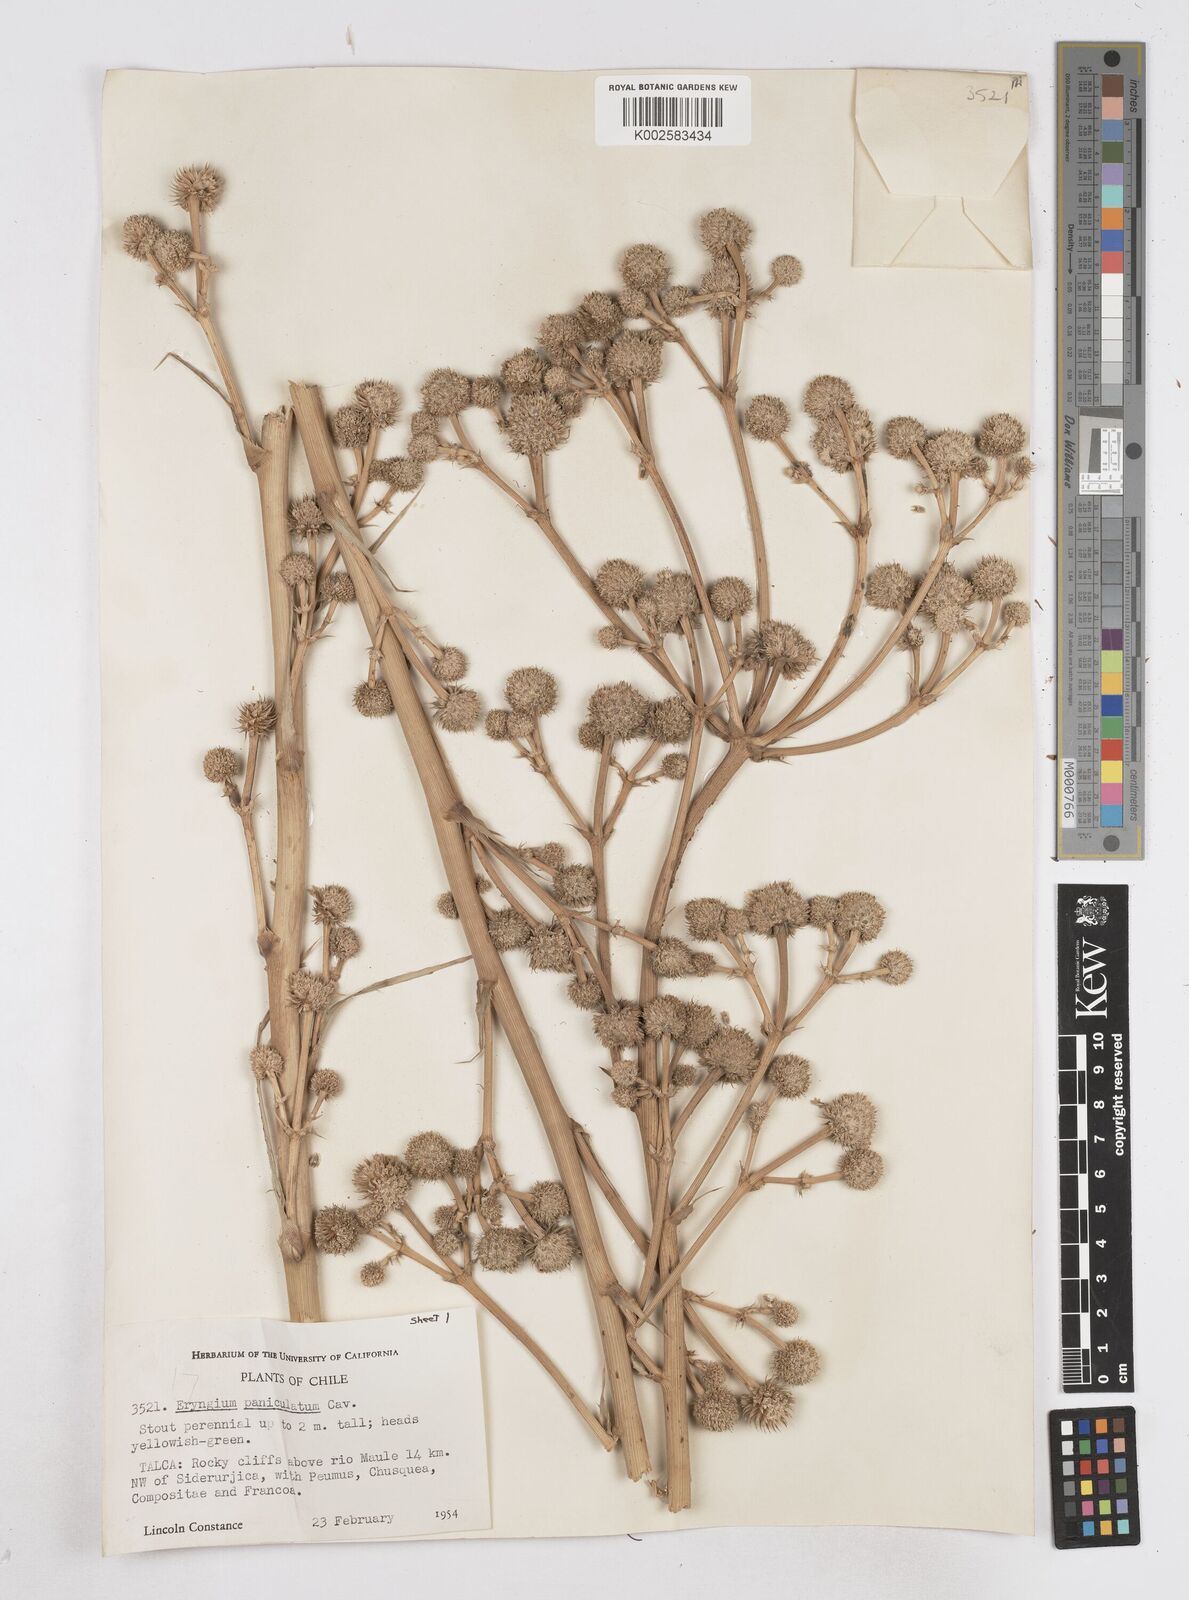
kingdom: Plantae
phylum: Tracheophyta
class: Magnoliopsida
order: Apiales
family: Apiaceae
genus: Eryngium
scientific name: Eryngium humboldtii
